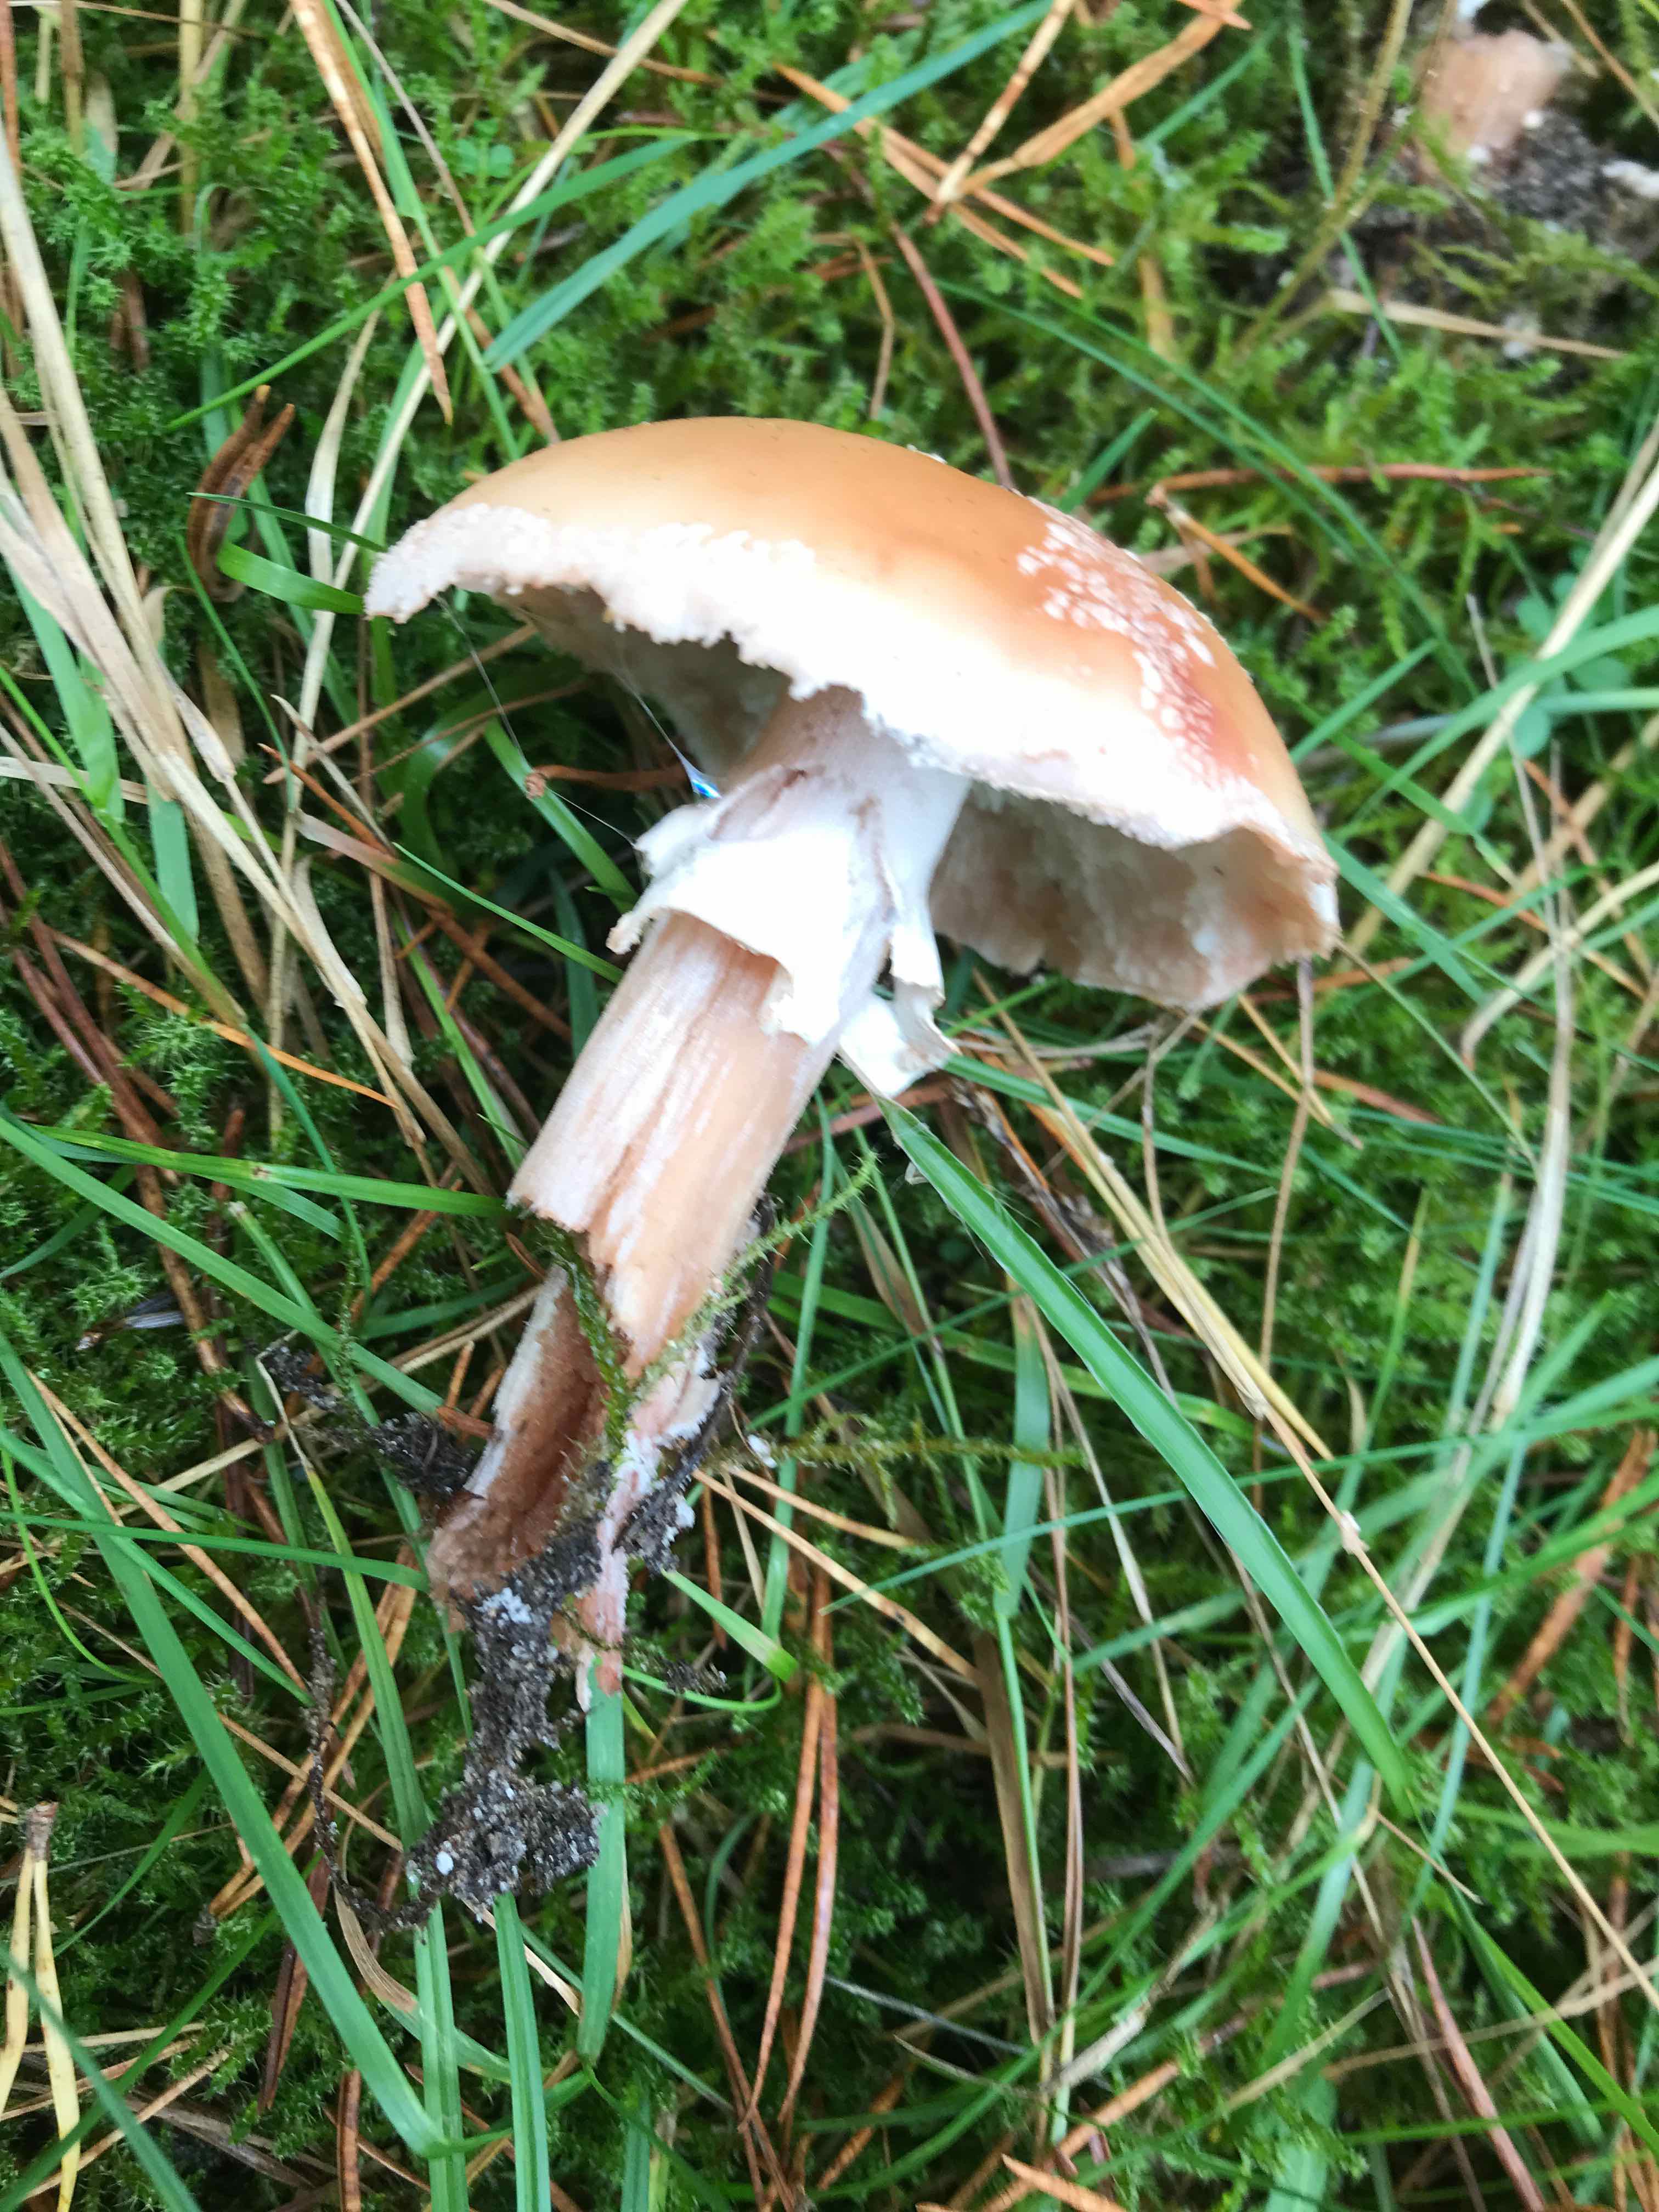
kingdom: Fungi
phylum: Basidiomycota
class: Agaricomycetes
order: Agaricales
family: Amanitaceae
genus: Amanita
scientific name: Amanita rubescens
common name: rødmende fluesvamp
